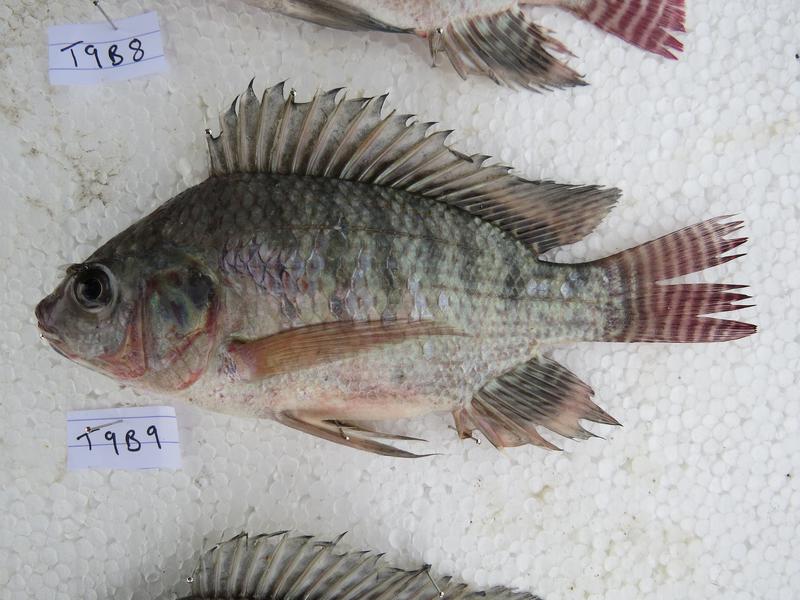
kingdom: Animalia
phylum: Chordata
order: Perciformes
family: Cichlidae
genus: Oreochromis
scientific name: Oreochromis niloticus
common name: Nile tilapia
